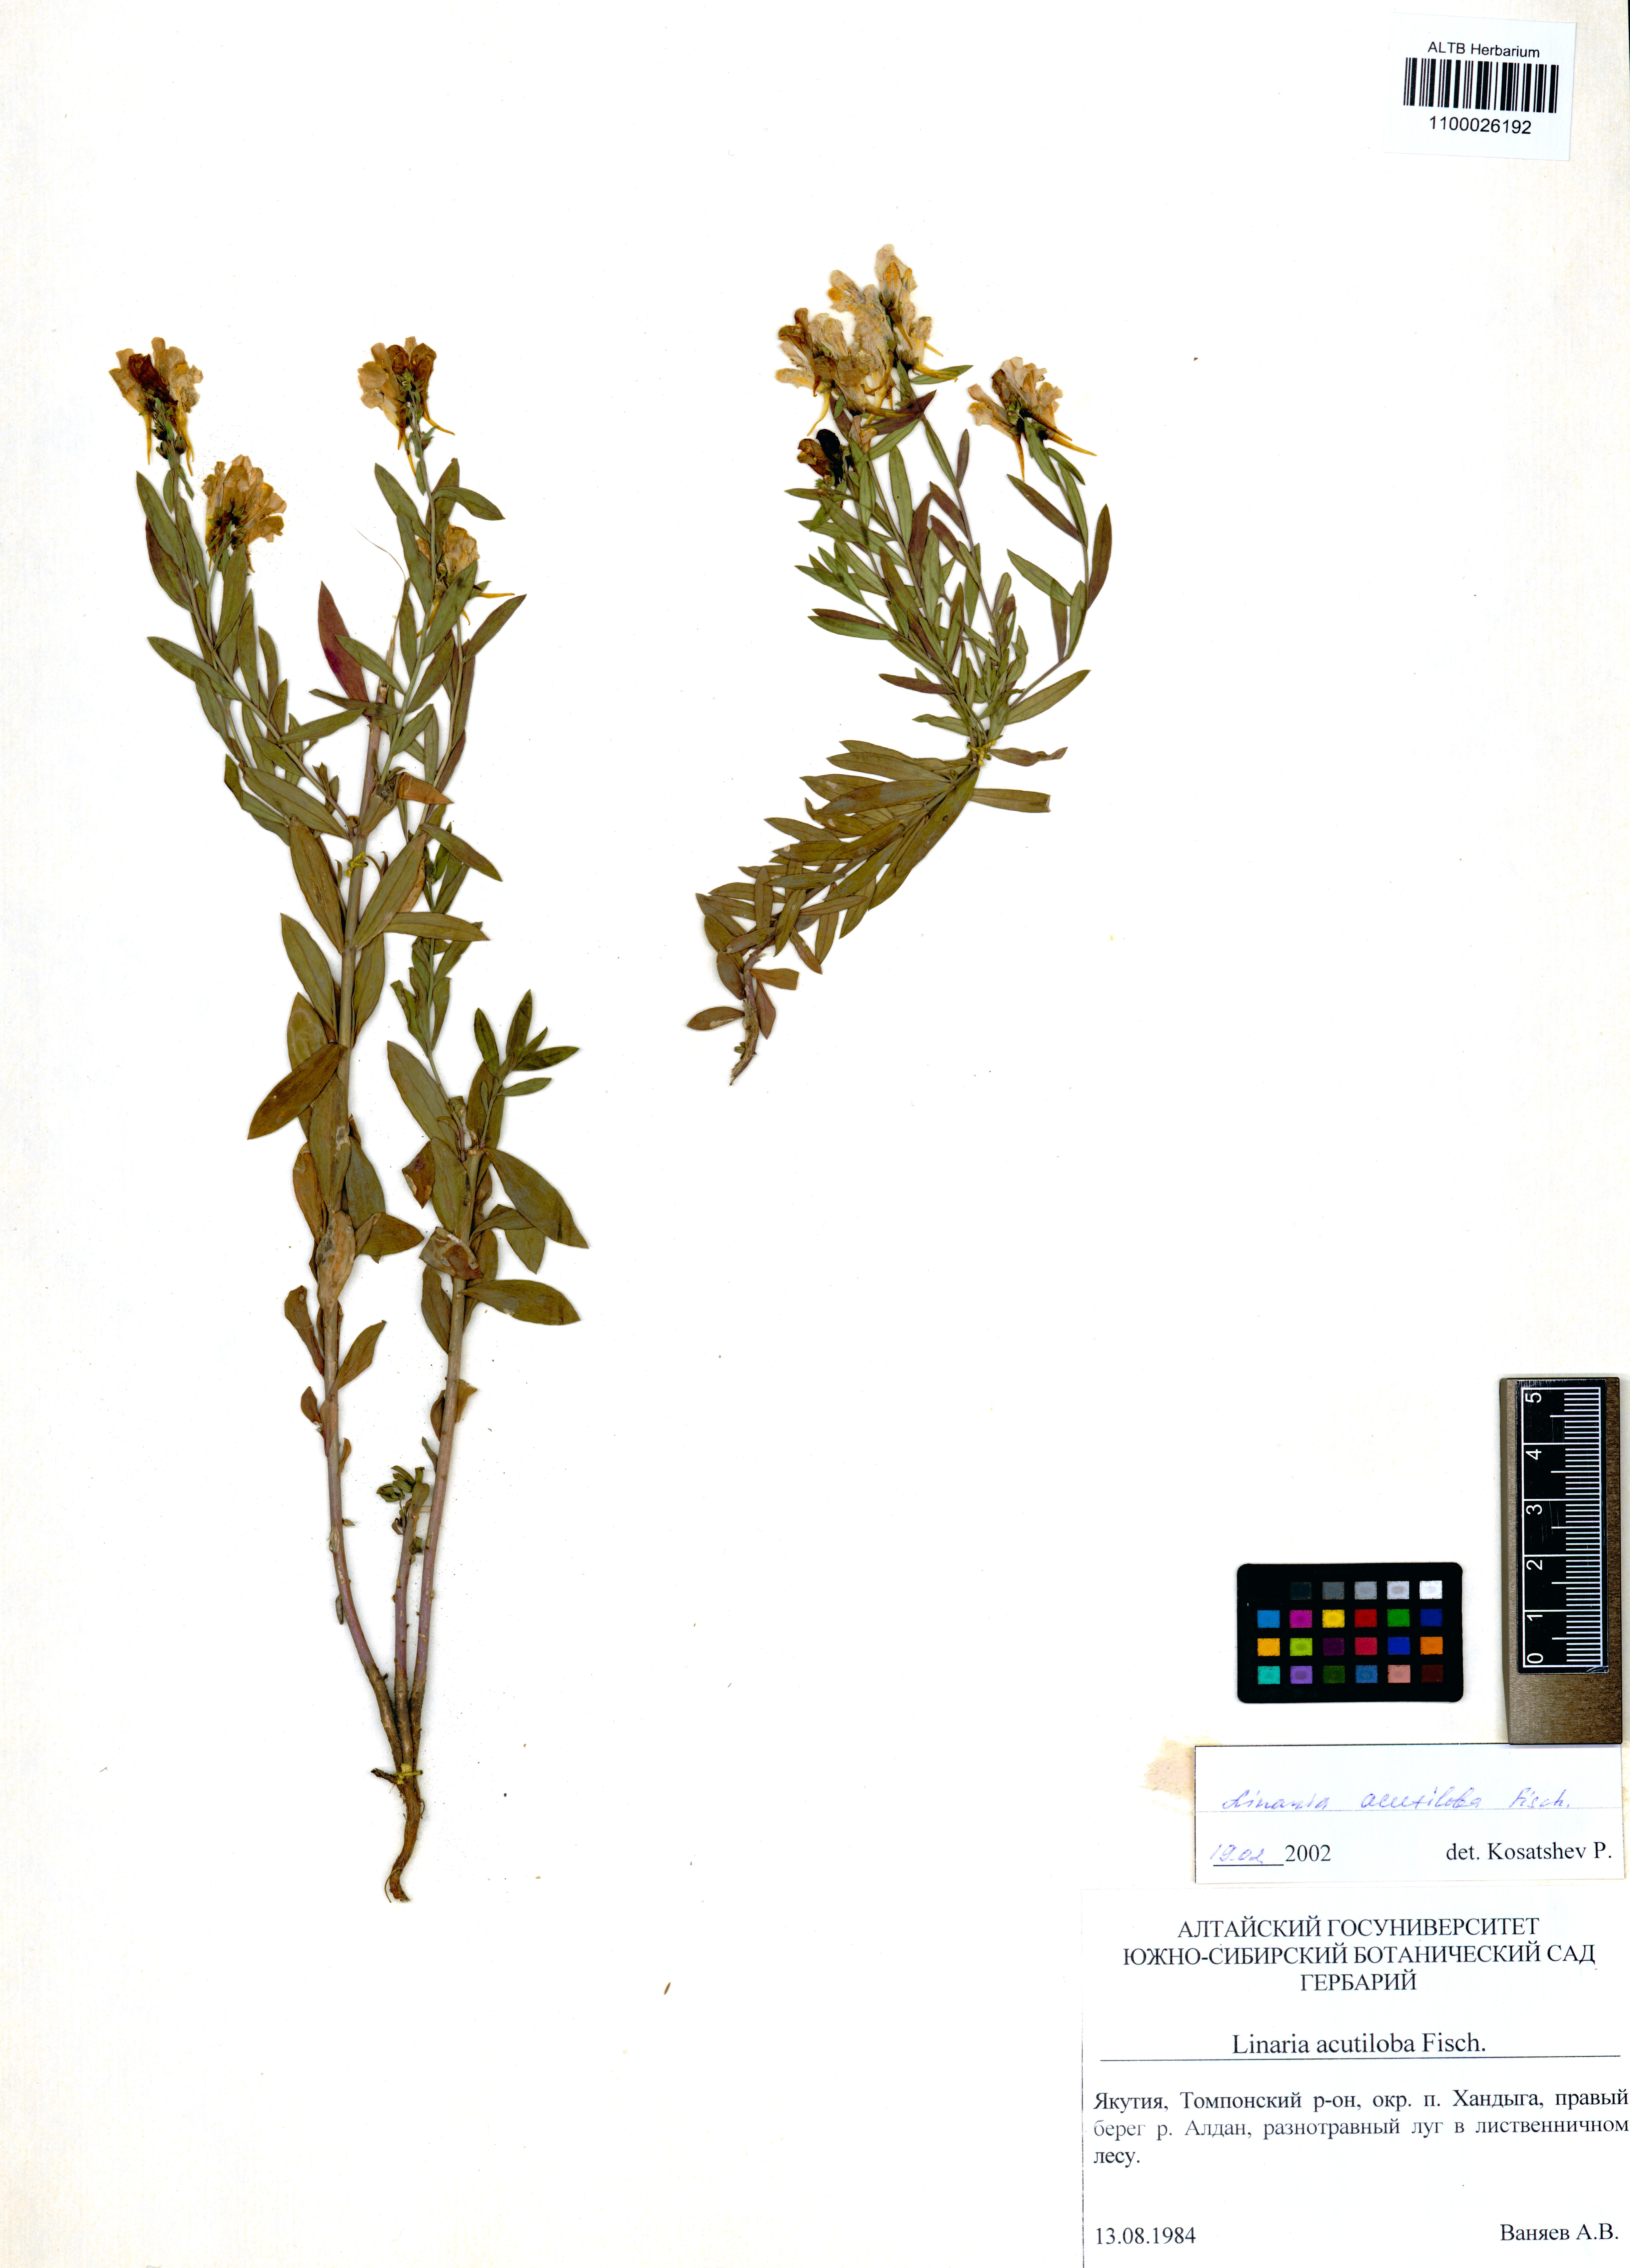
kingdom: Plantae
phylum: Tracheophyta
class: Magnoliopsida
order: Lamiales
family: Plantaginaceae
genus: Linaria
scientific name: Linaria acutiloba
